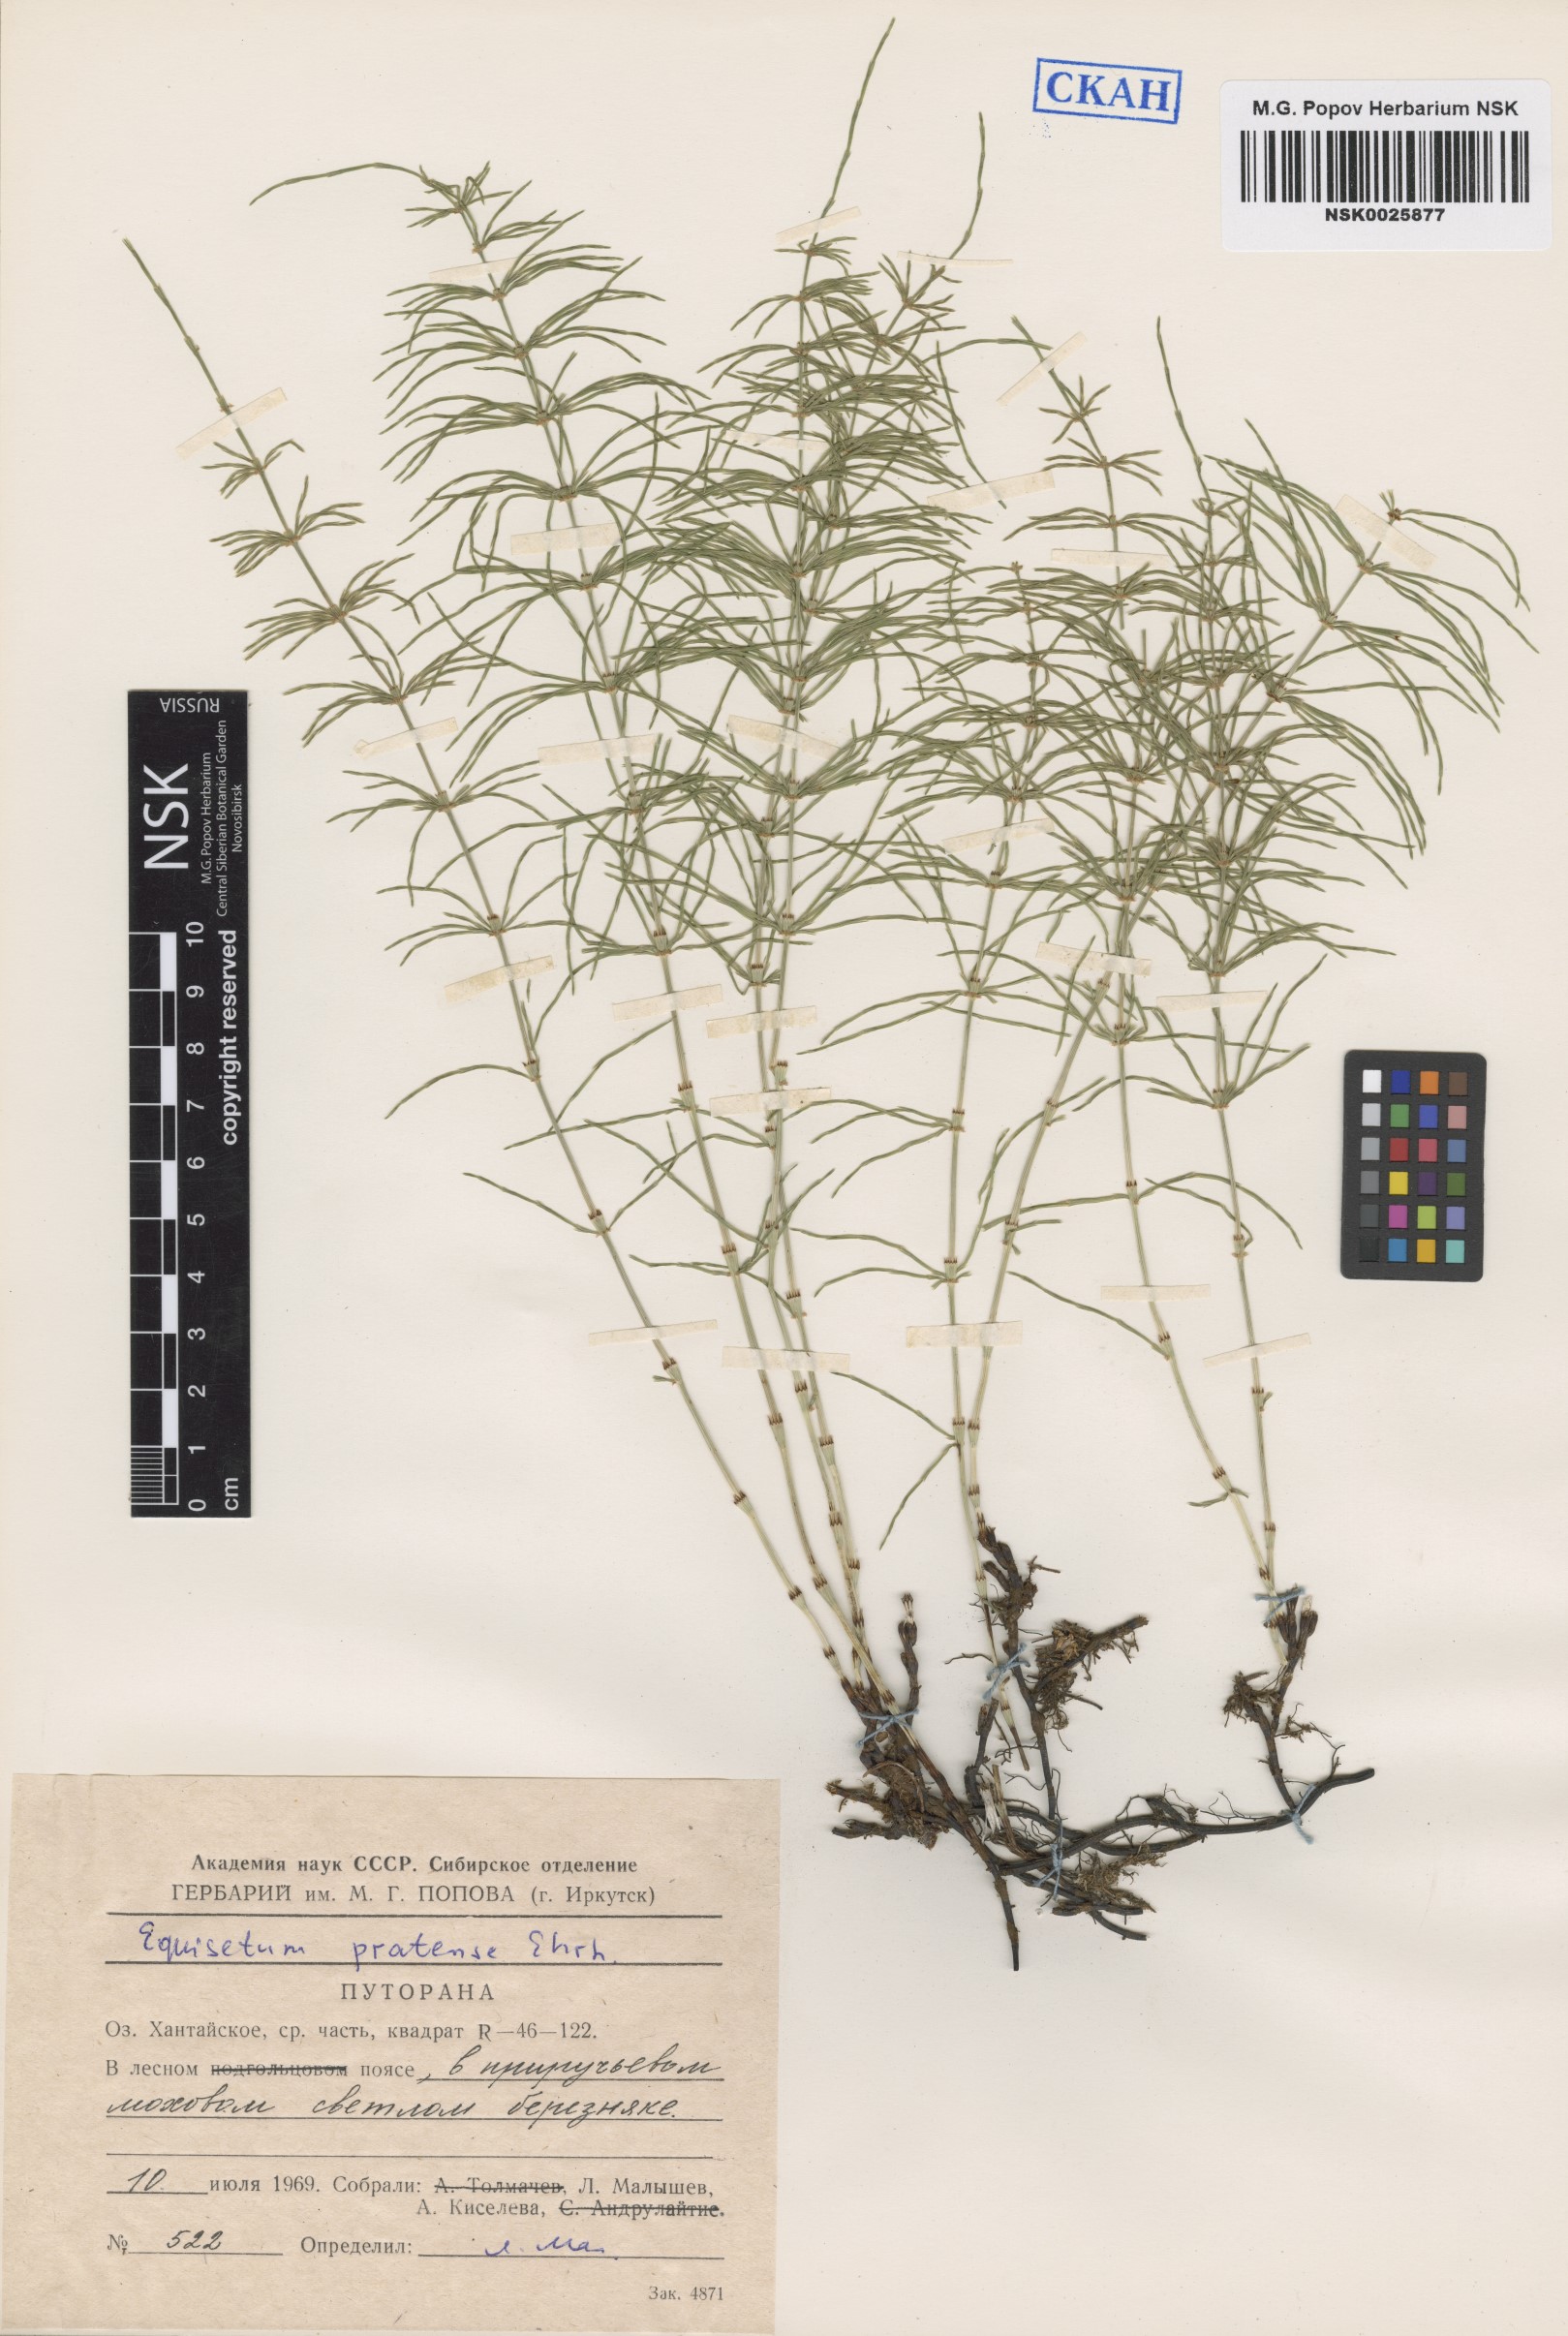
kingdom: Plantae
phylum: Tracheophyta
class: Polypodiopsida
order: Equisetales
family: Equisetaceae
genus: Equisetum
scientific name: Equisetum pratense
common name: Meadow horsetail
